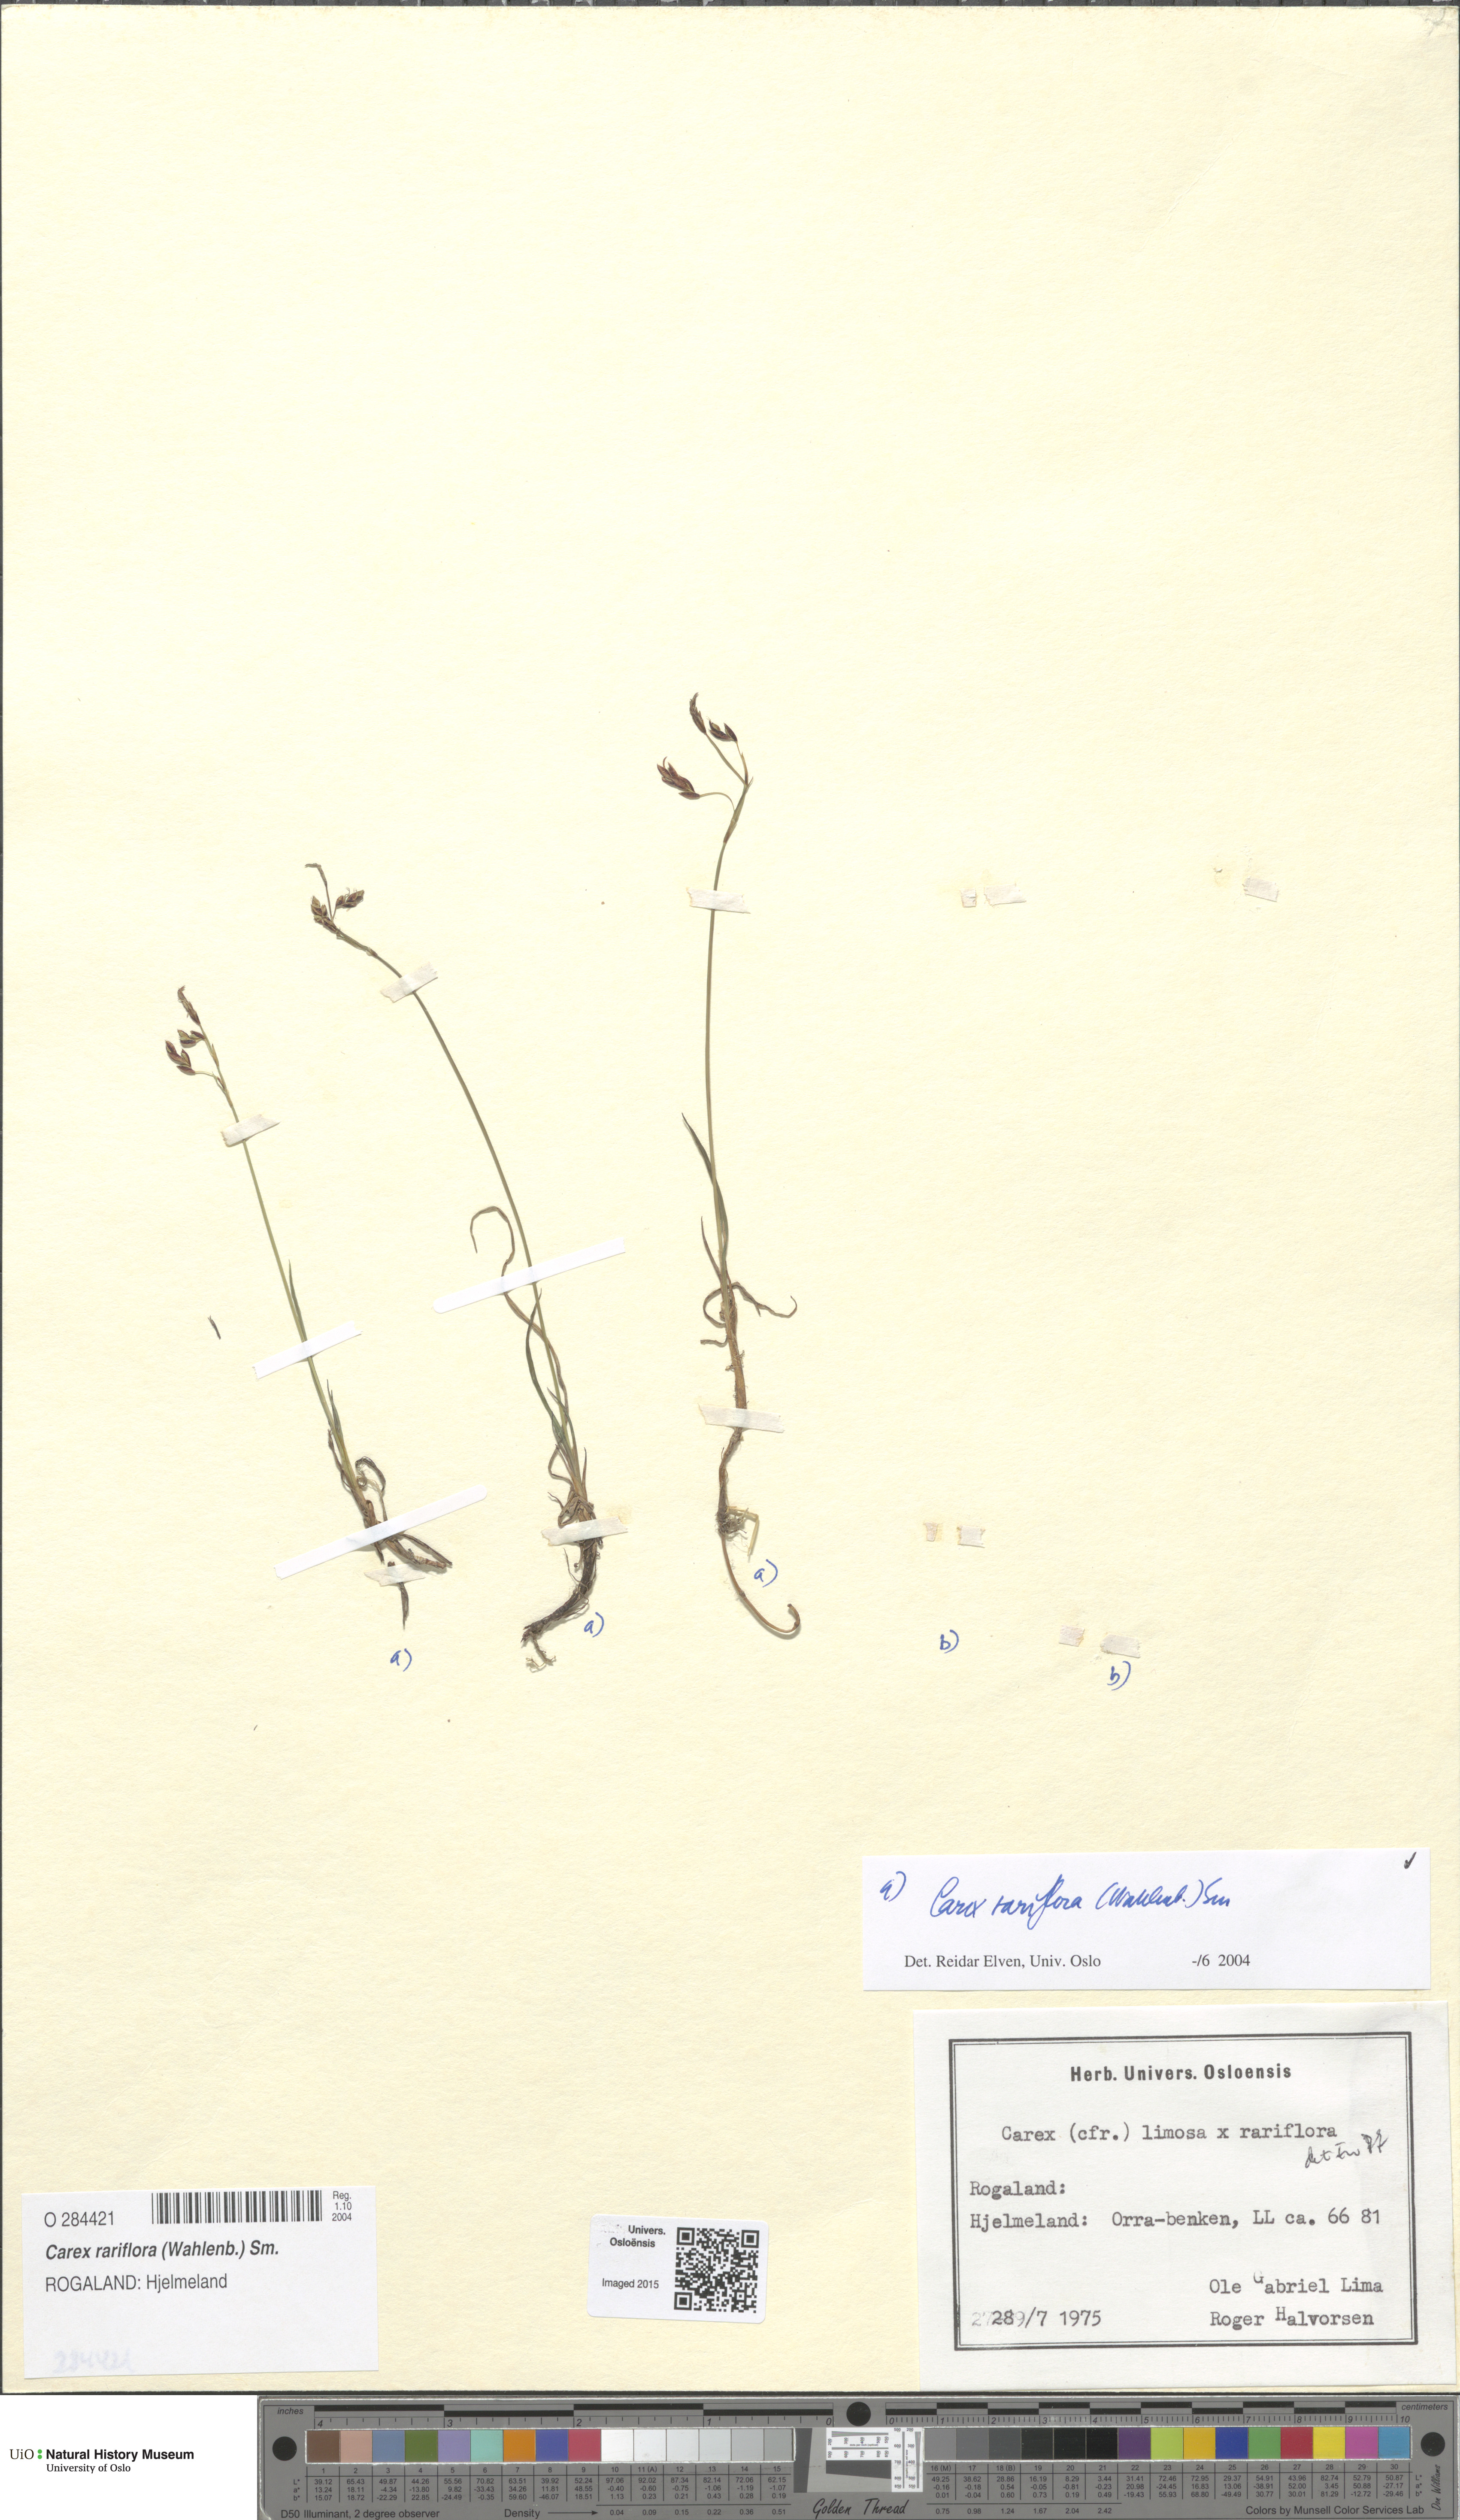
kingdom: Plantae
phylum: Tracheophyta
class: Liliopsida
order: Poales
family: Cyperaceae
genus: Carex
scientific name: Carex rariflora
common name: Loose-flowered alpine sedge
